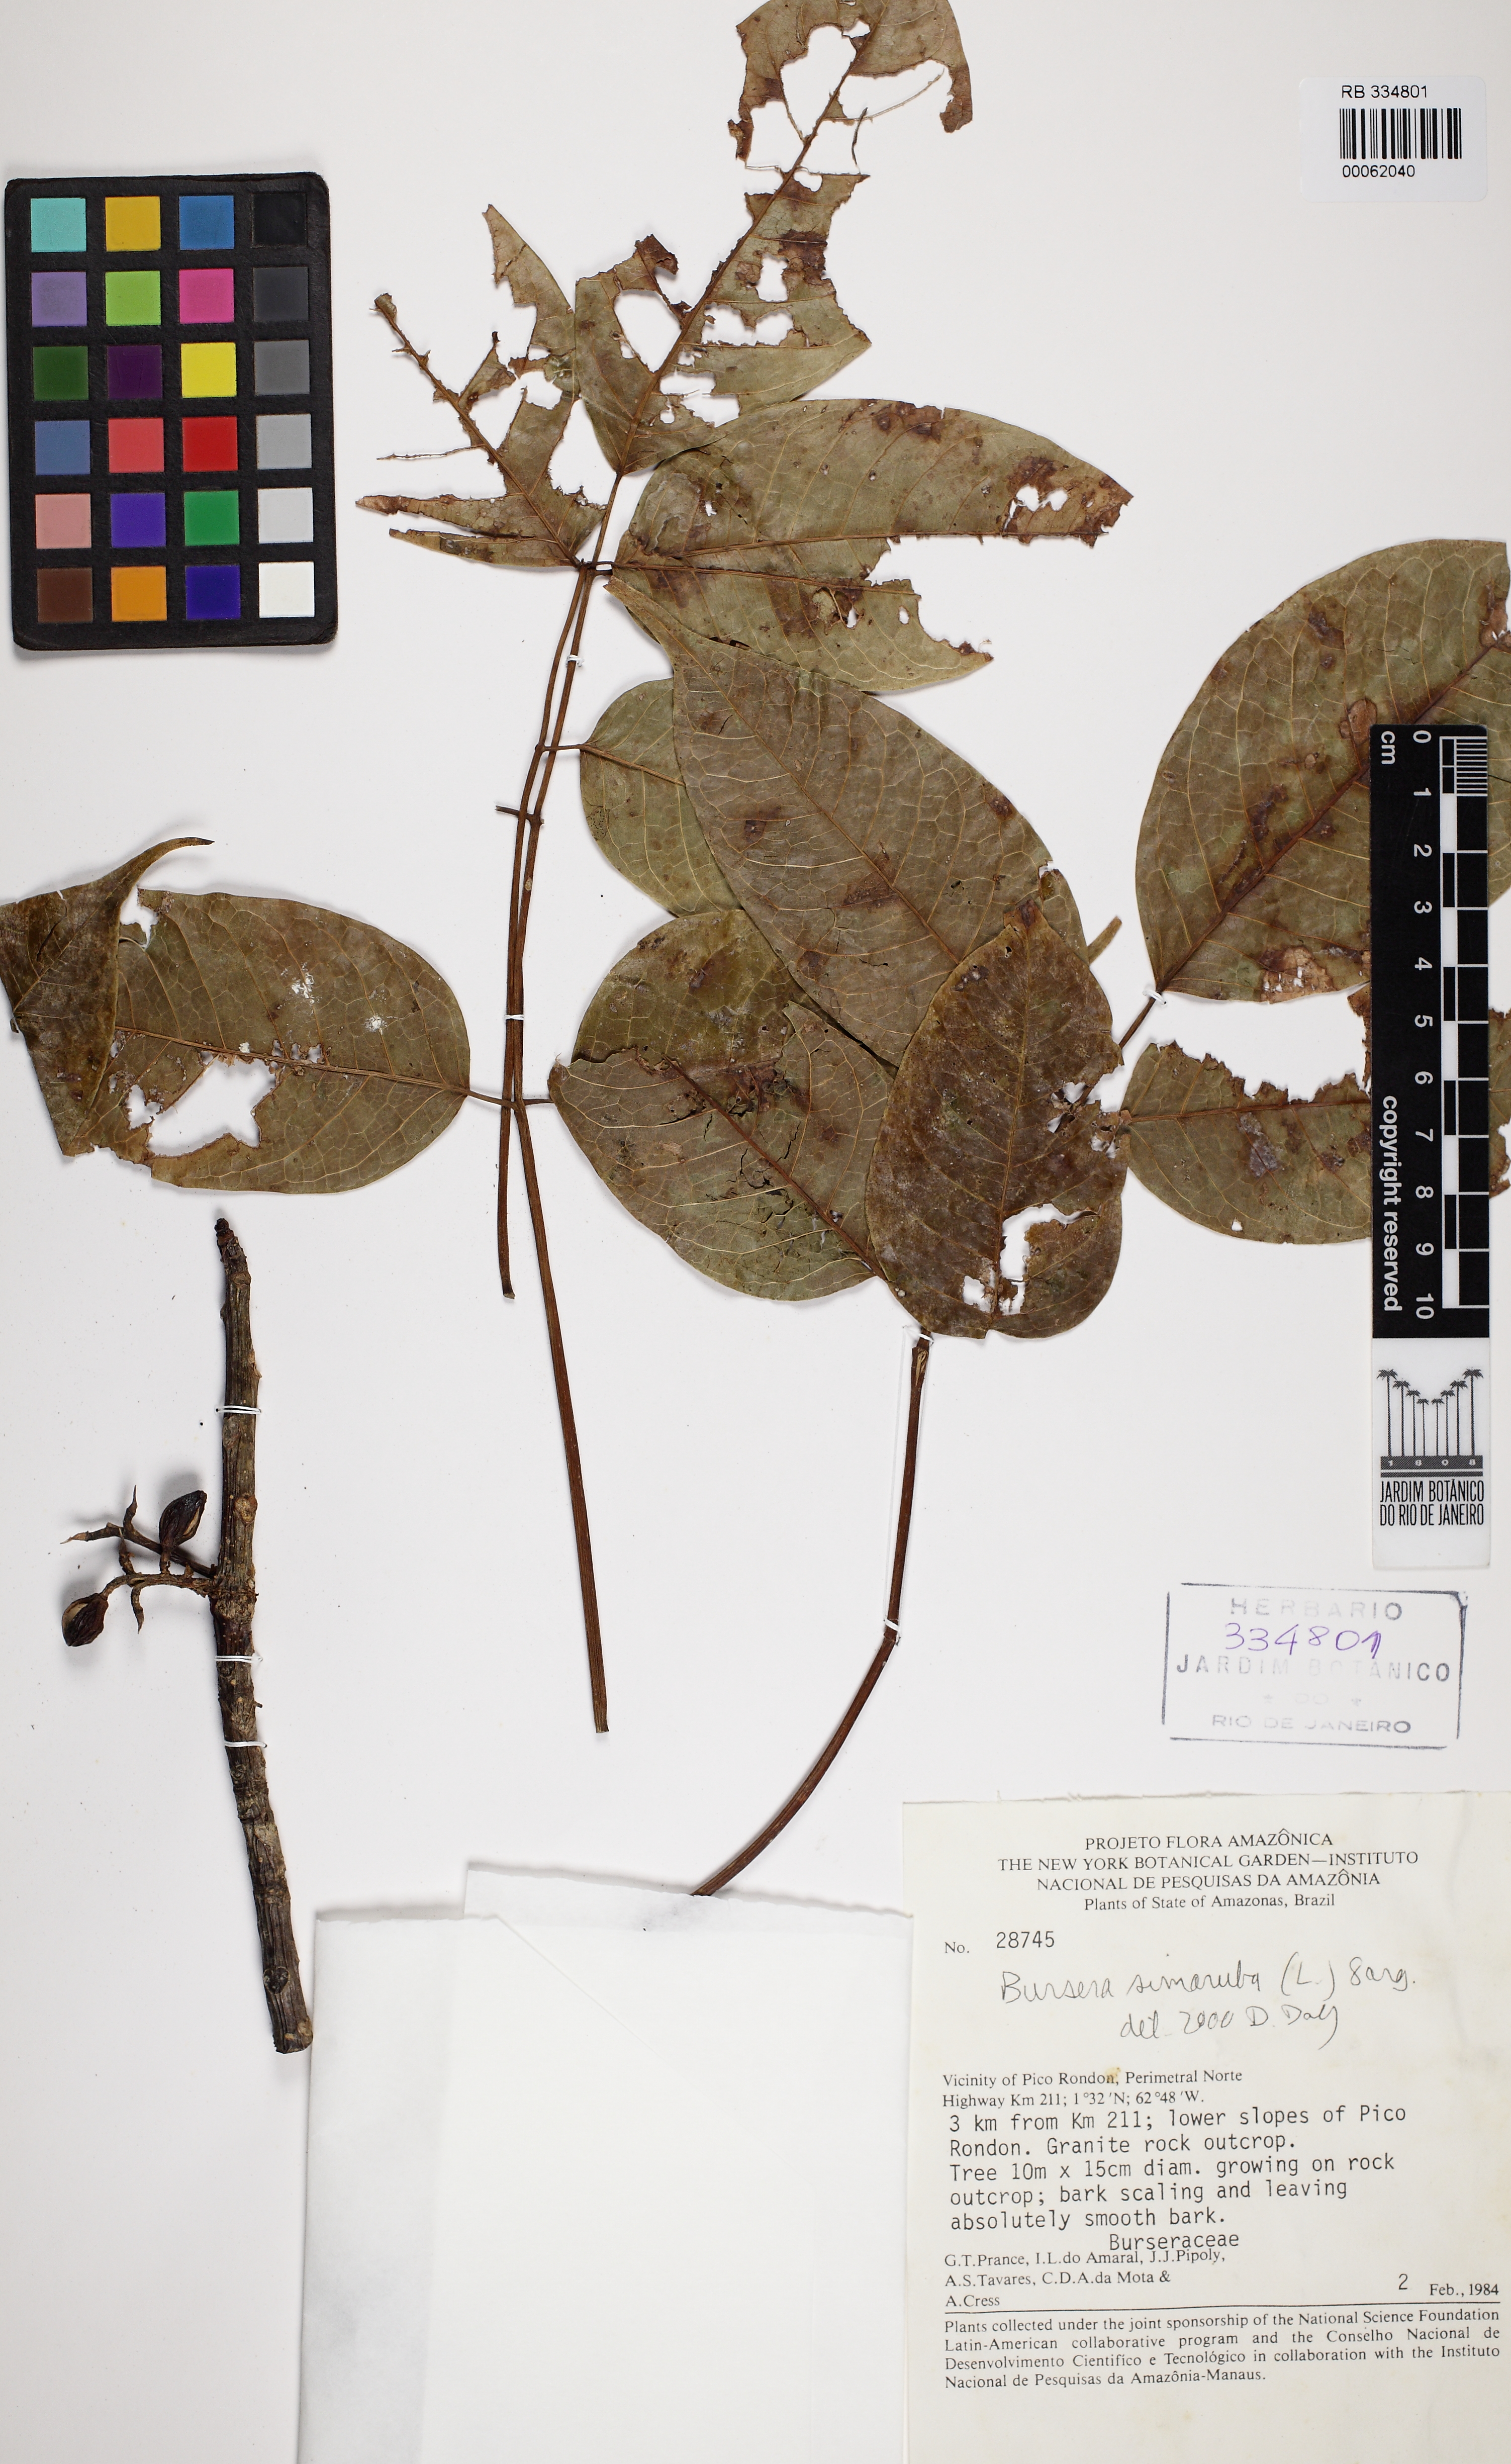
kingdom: Plantae
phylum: Tracheophyta
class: Magnoliopsida
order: Sapindales
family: Burseraceae
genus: Bursera
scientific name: Bursera simaruba
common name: Turpentine tree
